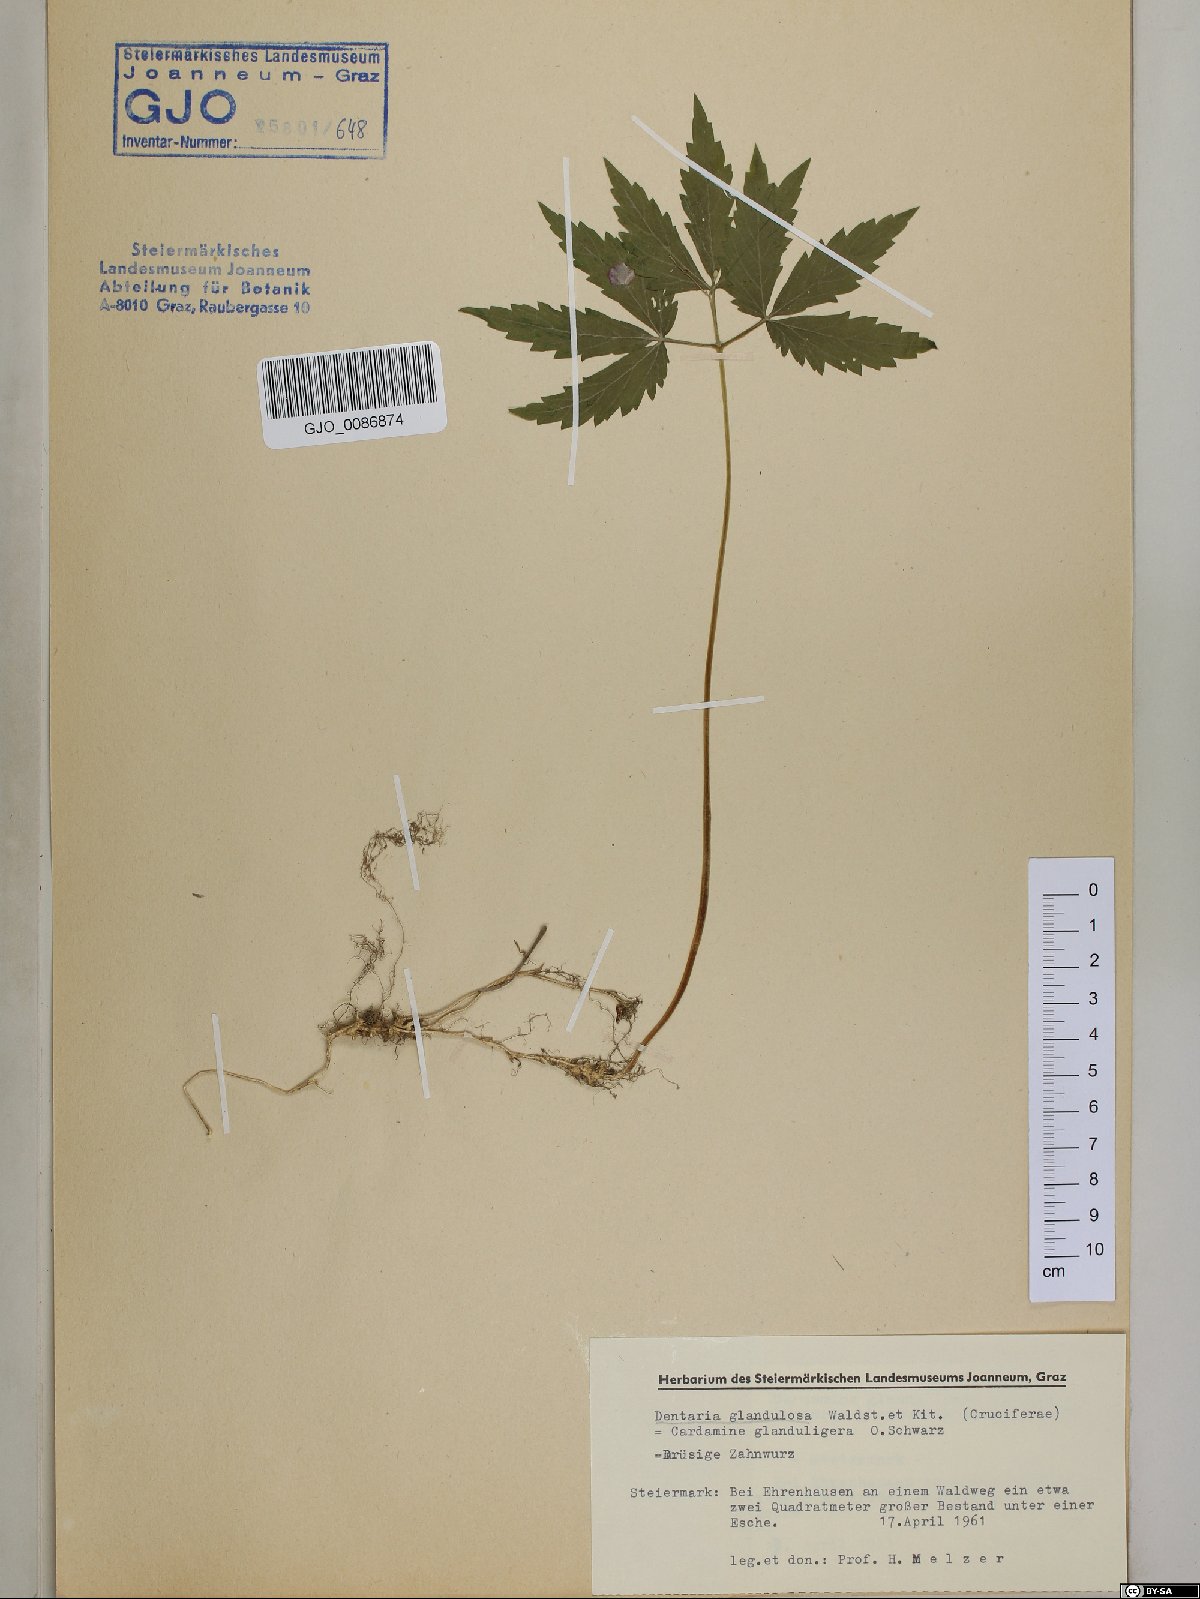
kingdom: Plantae
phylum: Tracheophyta
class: Magnoliopsida
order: Brassicales
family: Brassicaceae
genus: Cardamine
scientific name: Cardamine glanduligera
